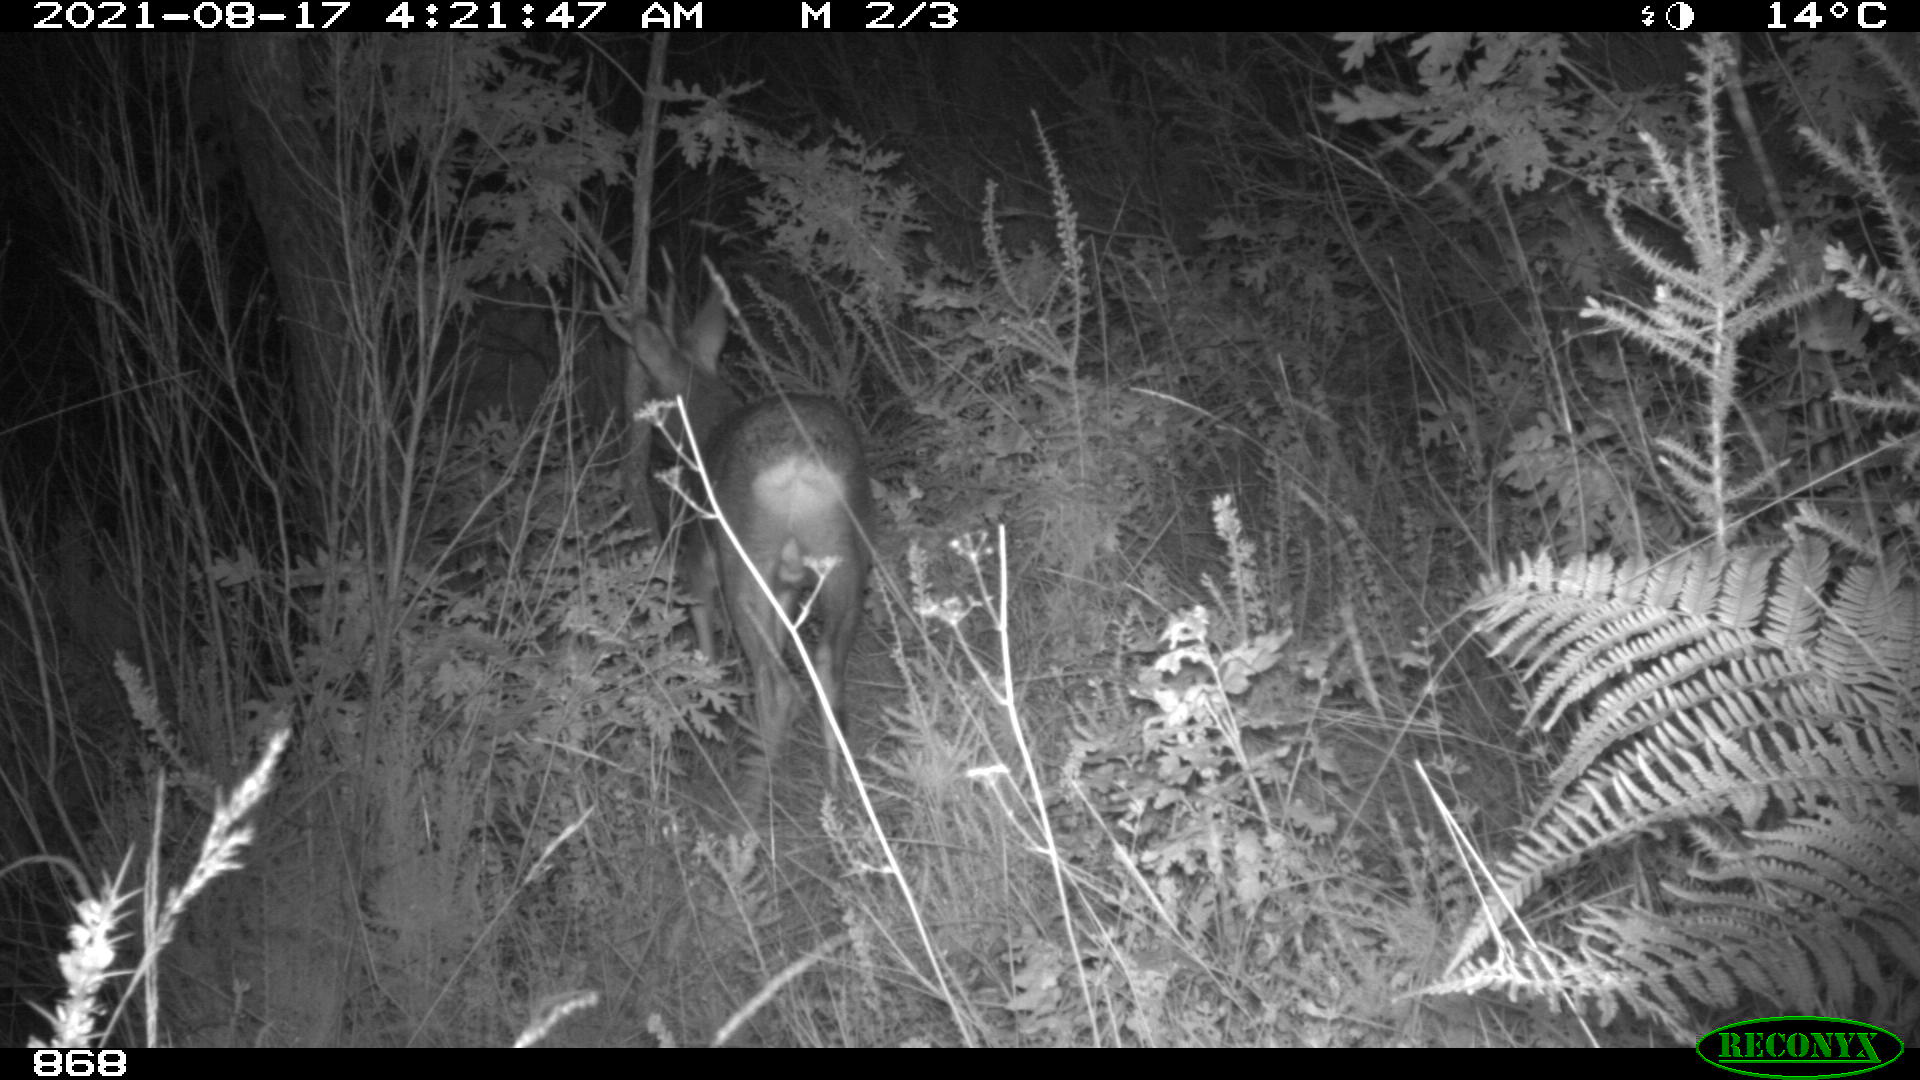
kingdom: Animalia
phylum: Chordata
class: Mammalia
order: Artiodactyla
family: Cervidae
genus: Capreolus
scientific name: Capreolus capreolus
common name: Western roe deer
